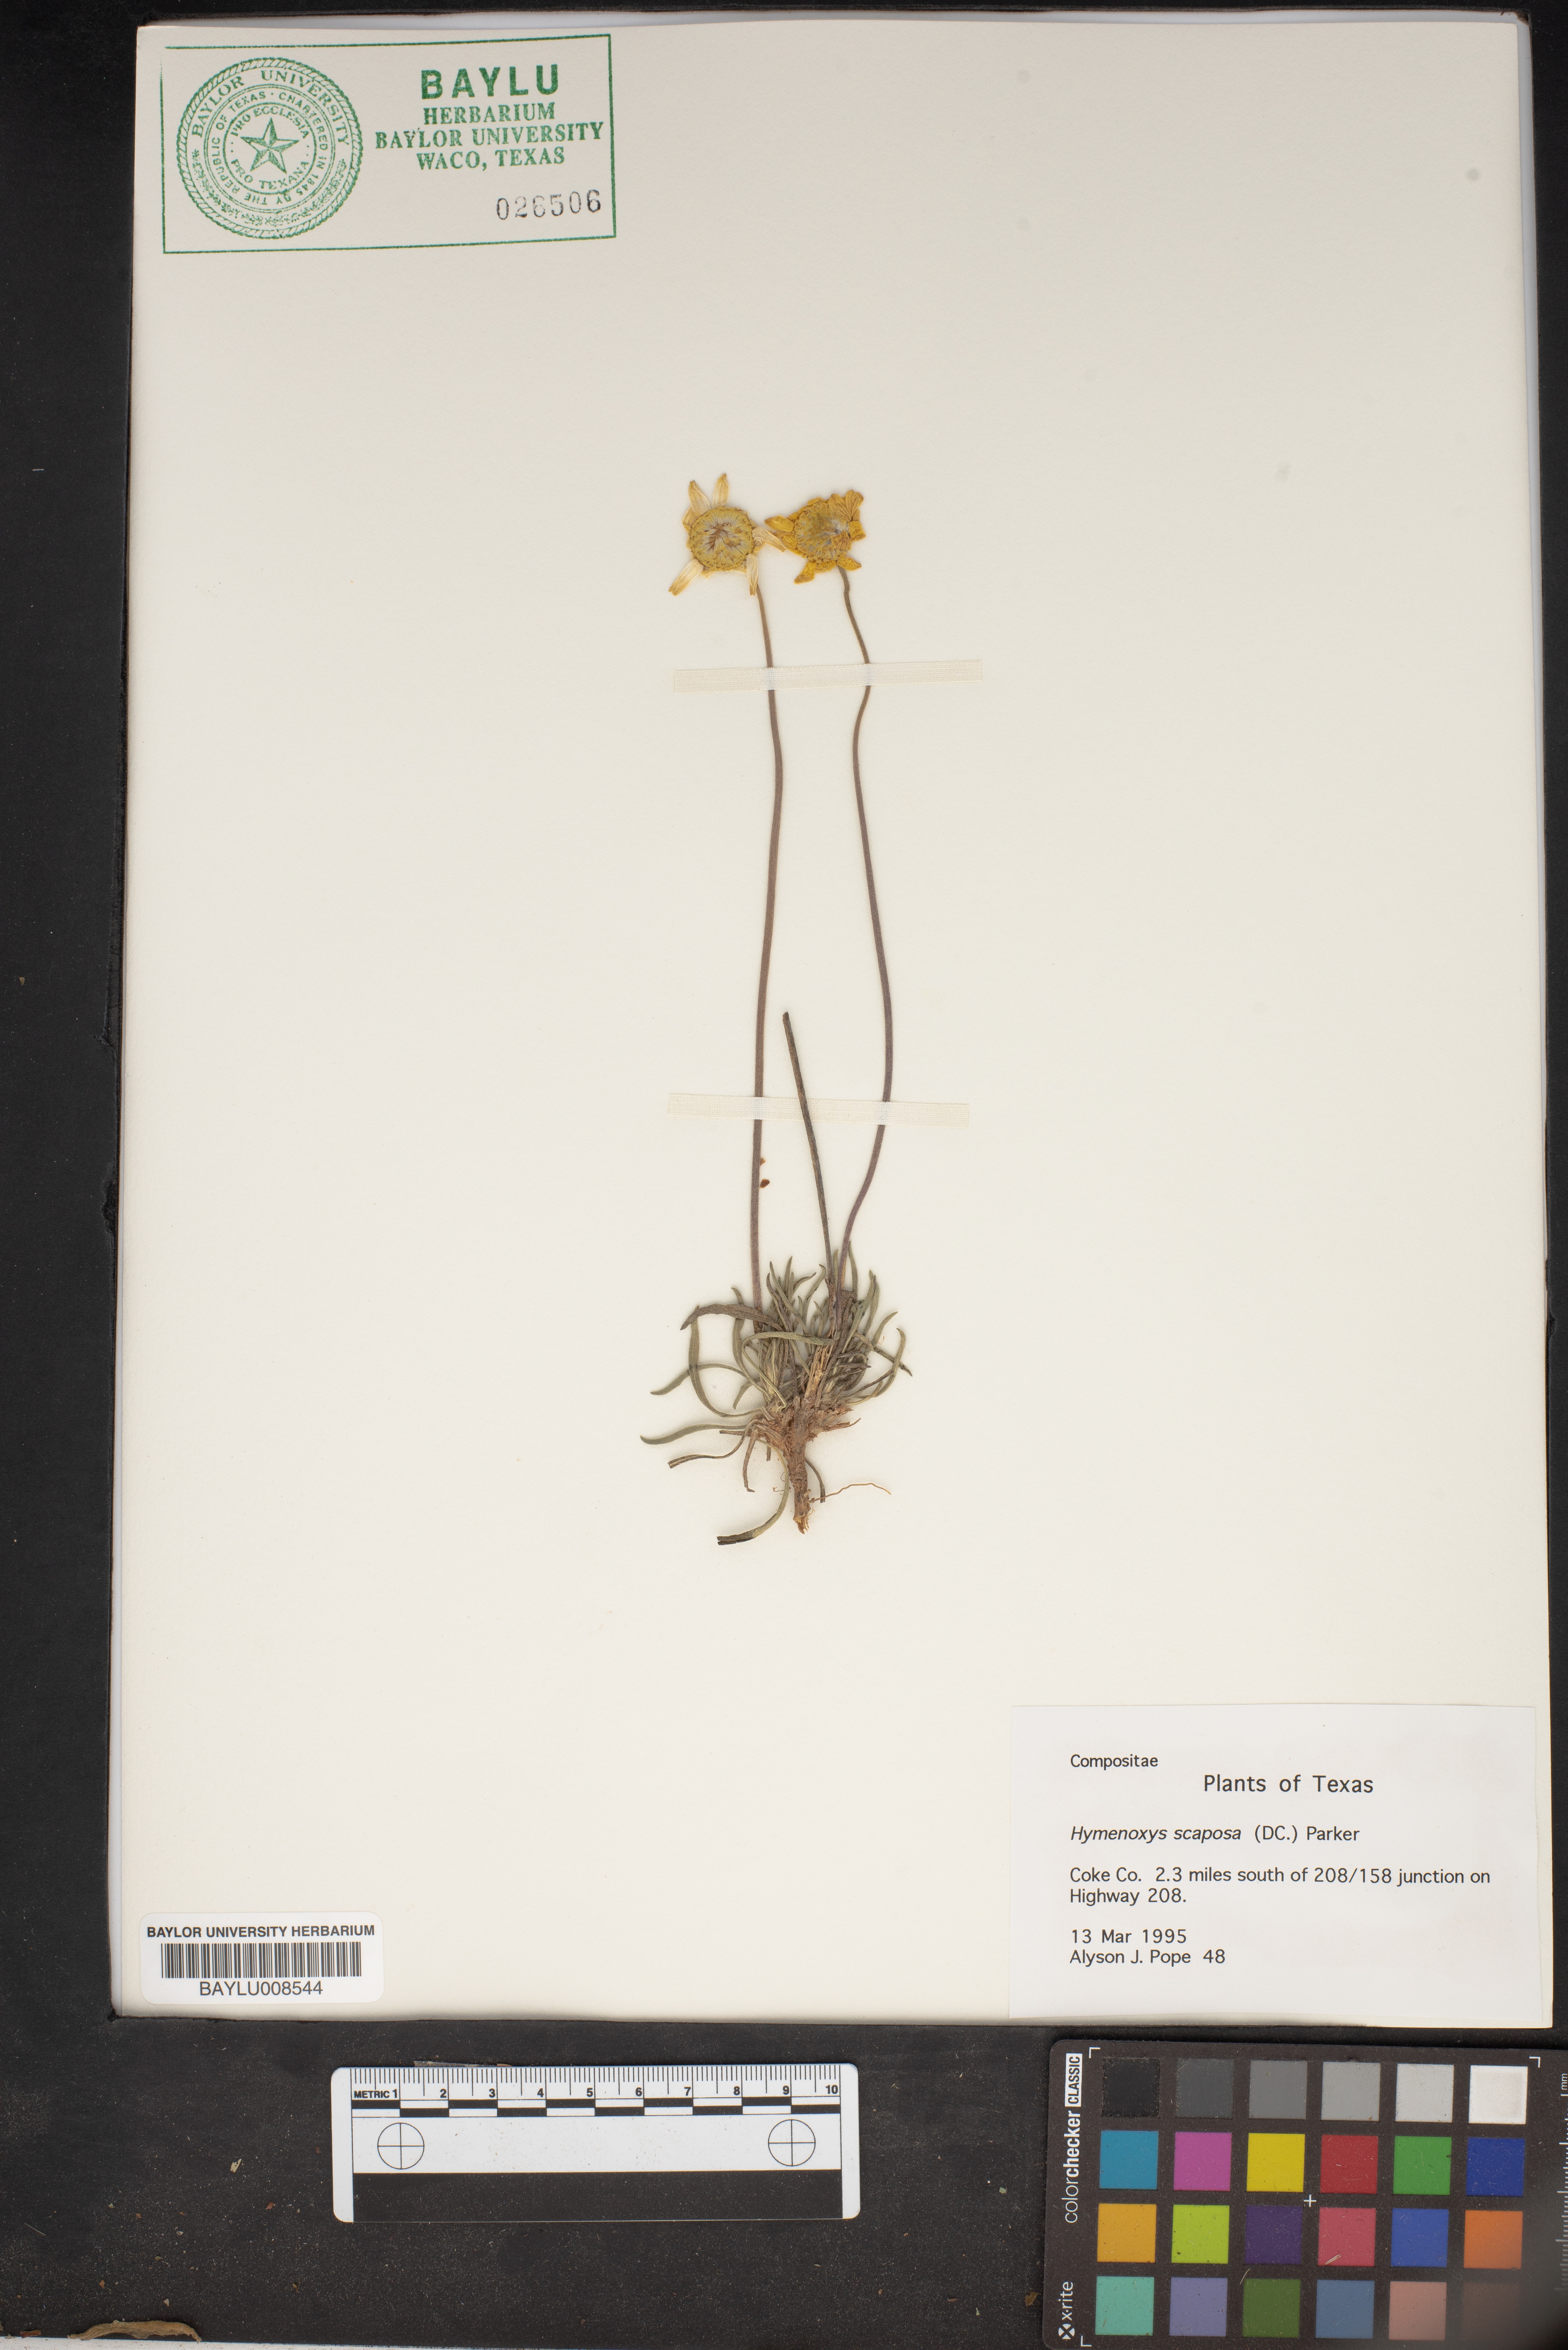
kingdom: Plantae
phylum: Tracheophyta
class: Magnoliopsida
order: Asterales
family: Asteraceae
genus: Tetraneuris
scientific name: Tetraneuris scaposa
